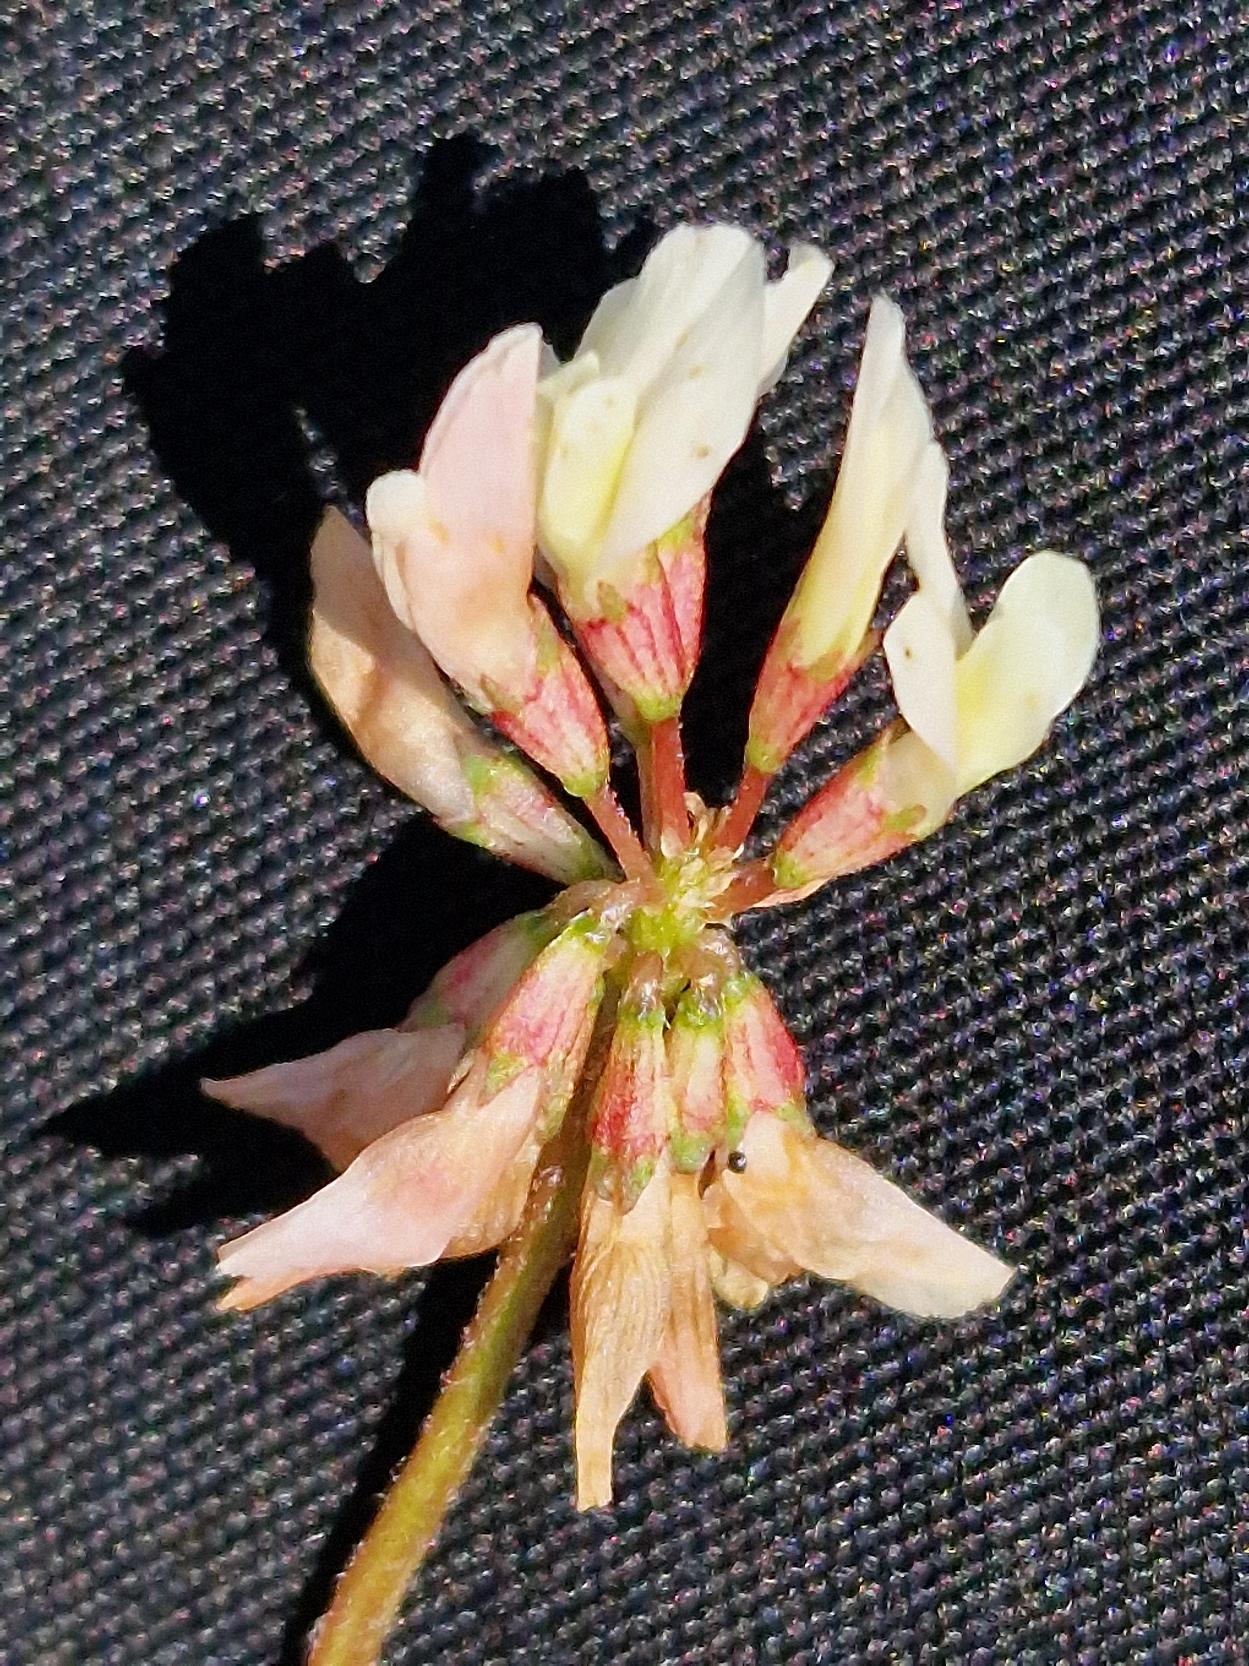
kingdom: Plantae
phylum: Tracheophyta
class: Magnoliopsida
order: Fabales
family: Fabaceae
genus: Trifolium
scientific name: Trifolium repens
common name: Hvid-kløver
